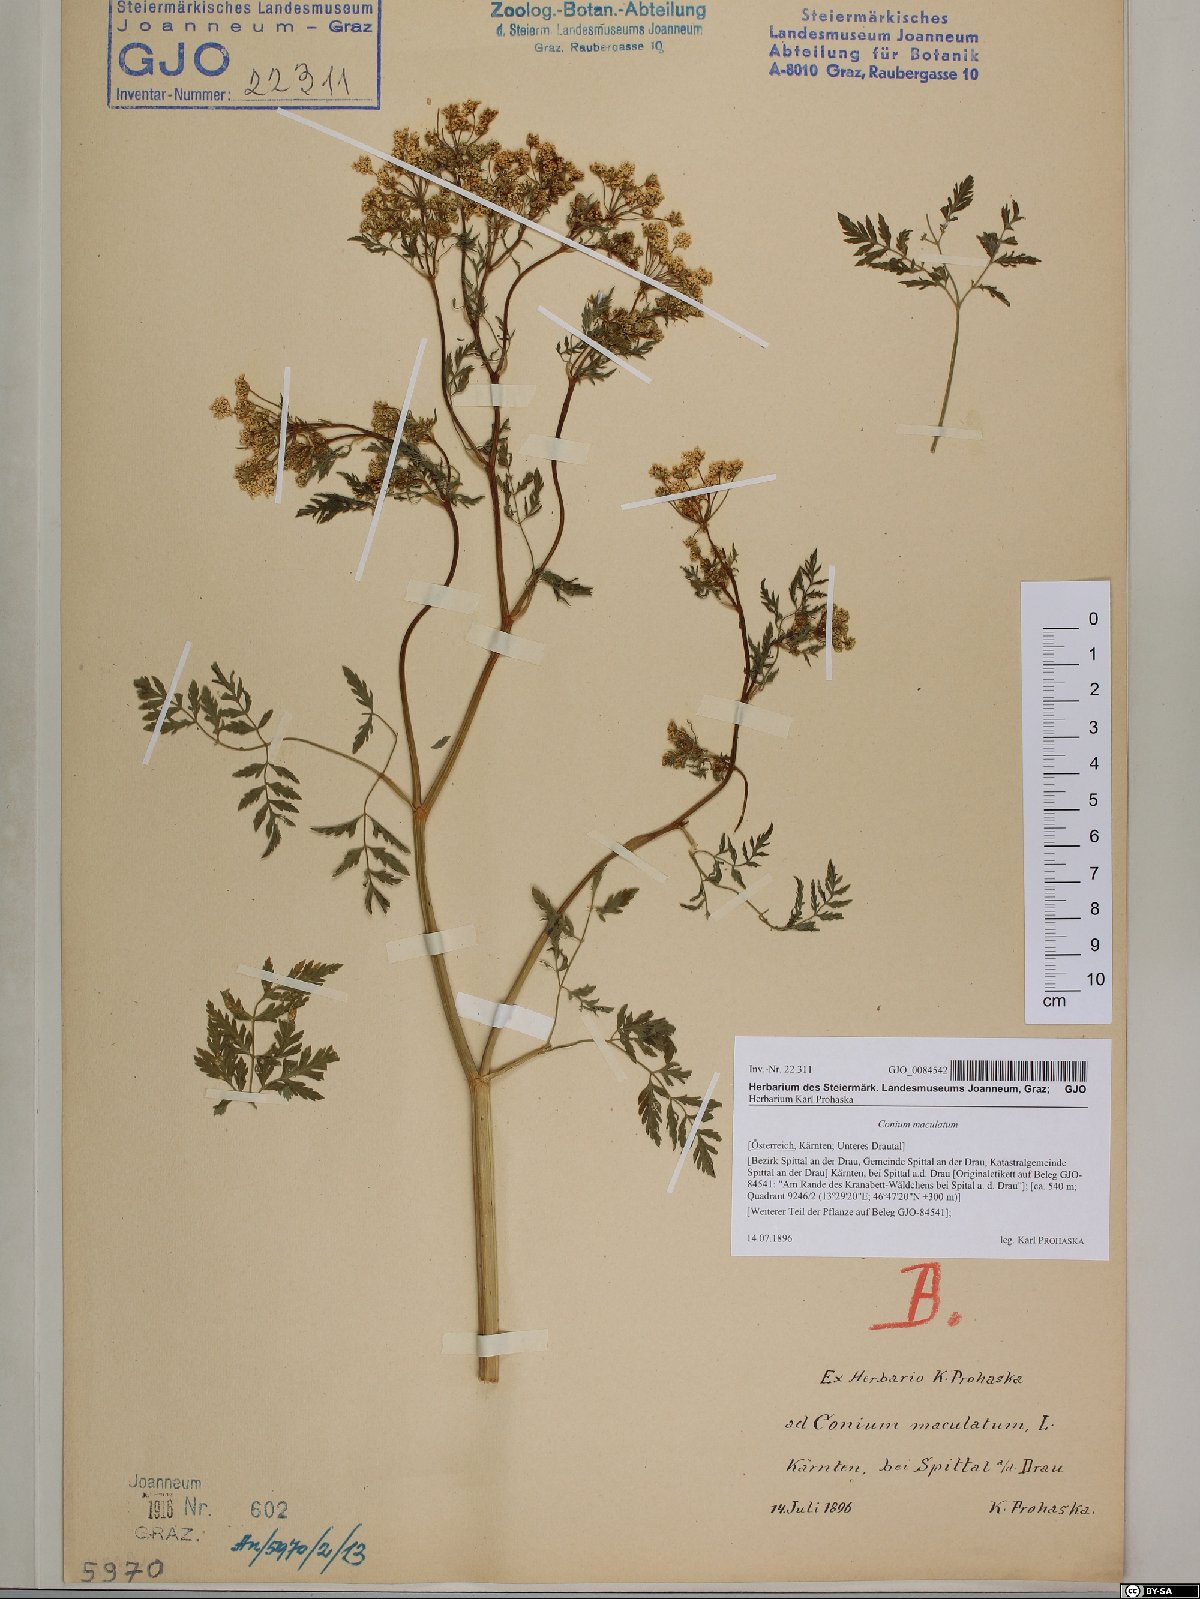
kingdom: Plantae
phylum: Tracheophyta
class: Magnoliopsida
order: Apiales
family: Apiaceae
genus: Conium
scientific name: Conium maculatum
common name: Hemlock
